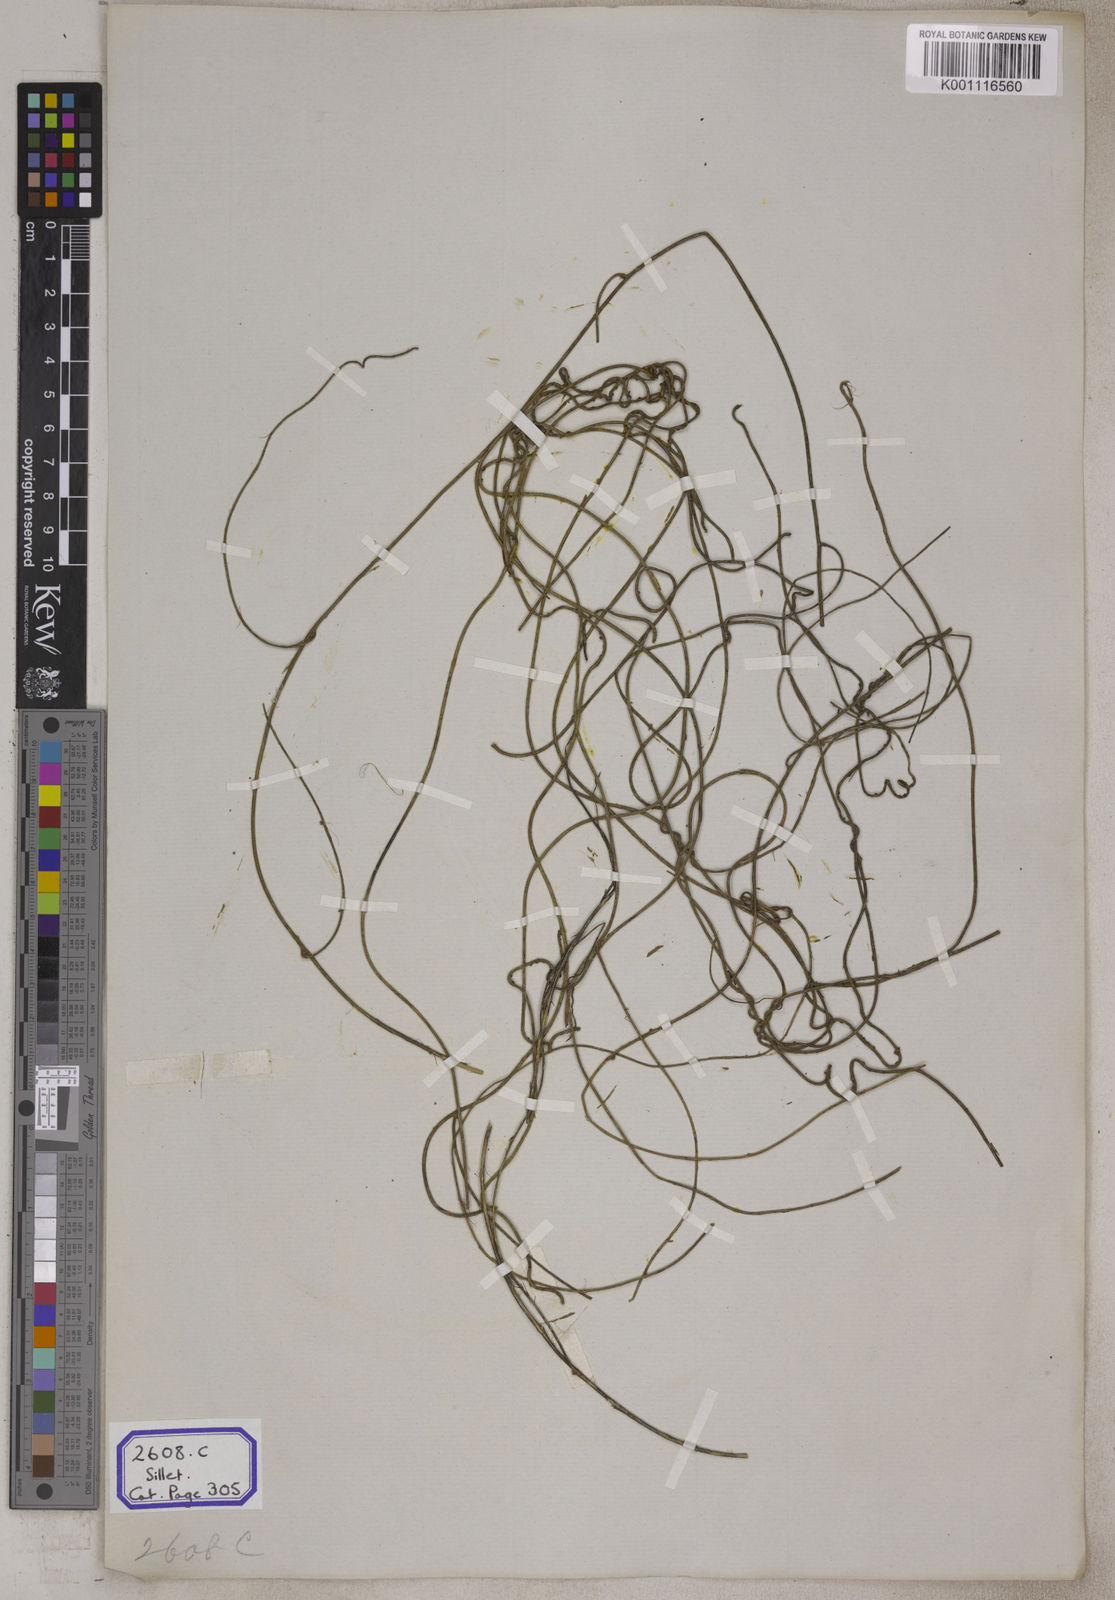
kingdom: Plantae
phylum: Tracheophyta
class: Magnoliopsida
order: Laurales
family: Lauraceae
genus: Cassytha
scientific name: Cassytha filiformis
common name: Dodder-laurel
